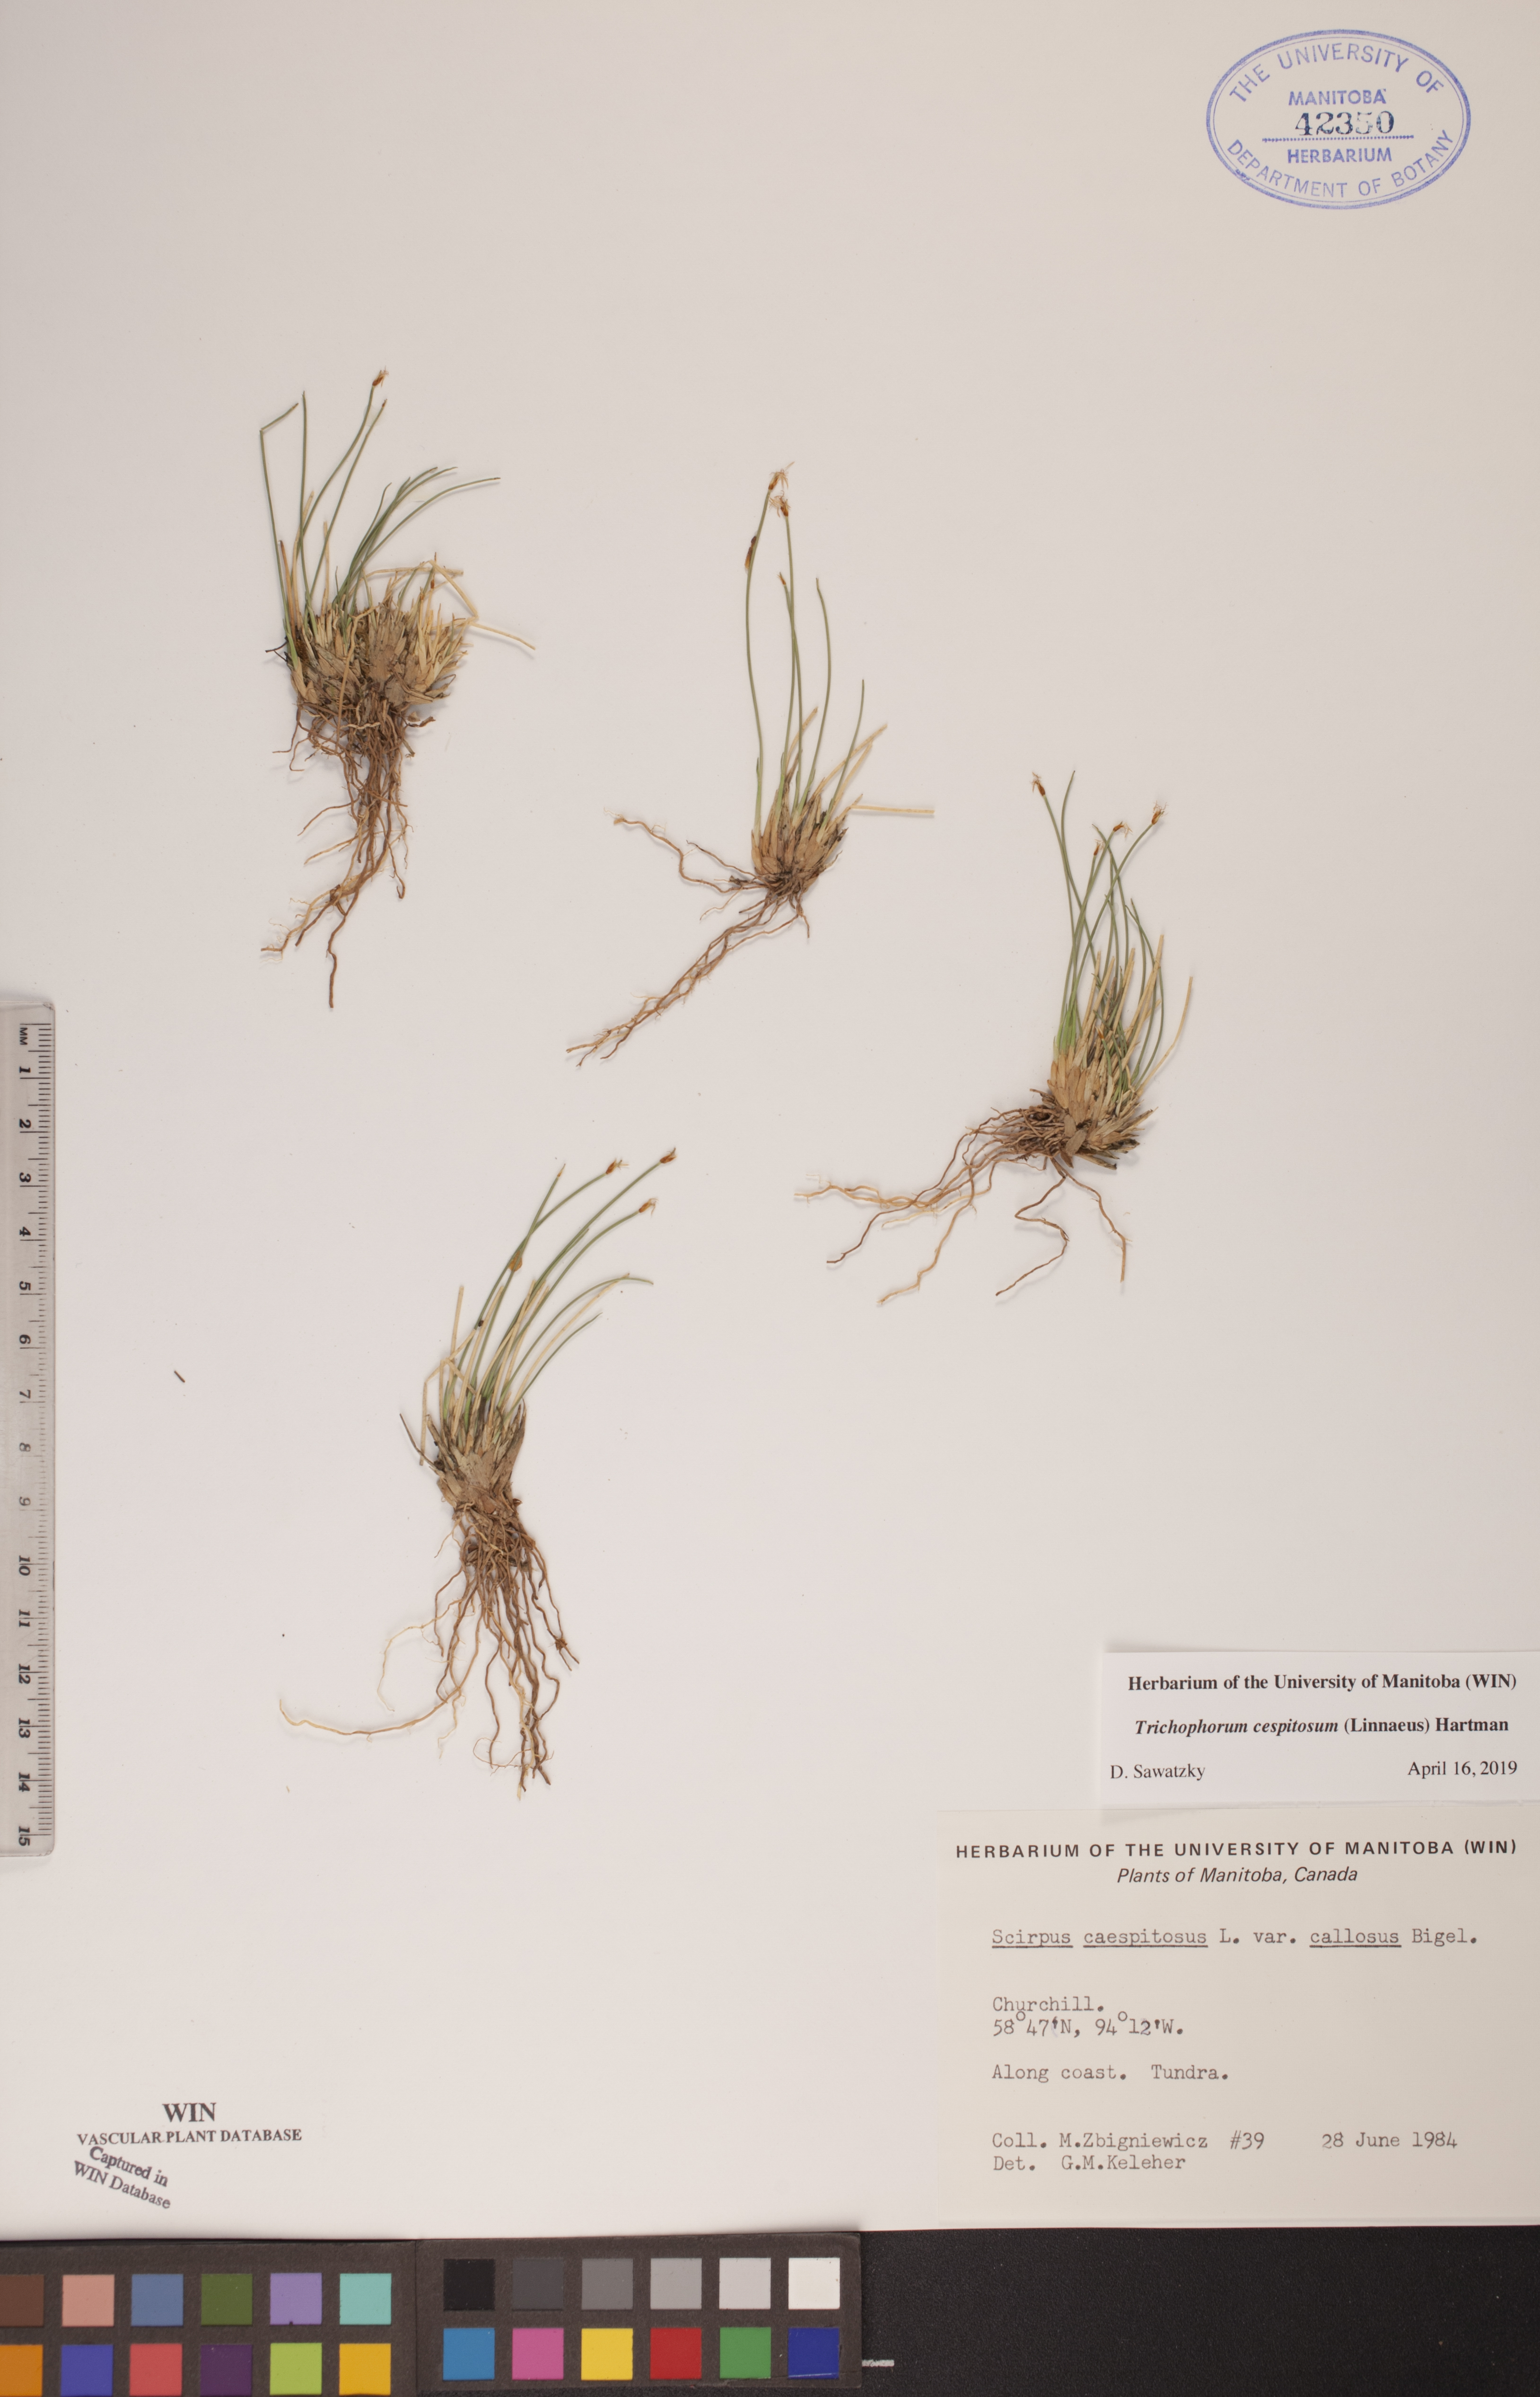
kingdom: Plantae
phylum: Tracheophyta
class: Liliopsida
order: Poales
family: Cyperaceae
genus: Trichophorum
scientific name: Trichophorum cespitosum
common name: Cespitose bulrush
